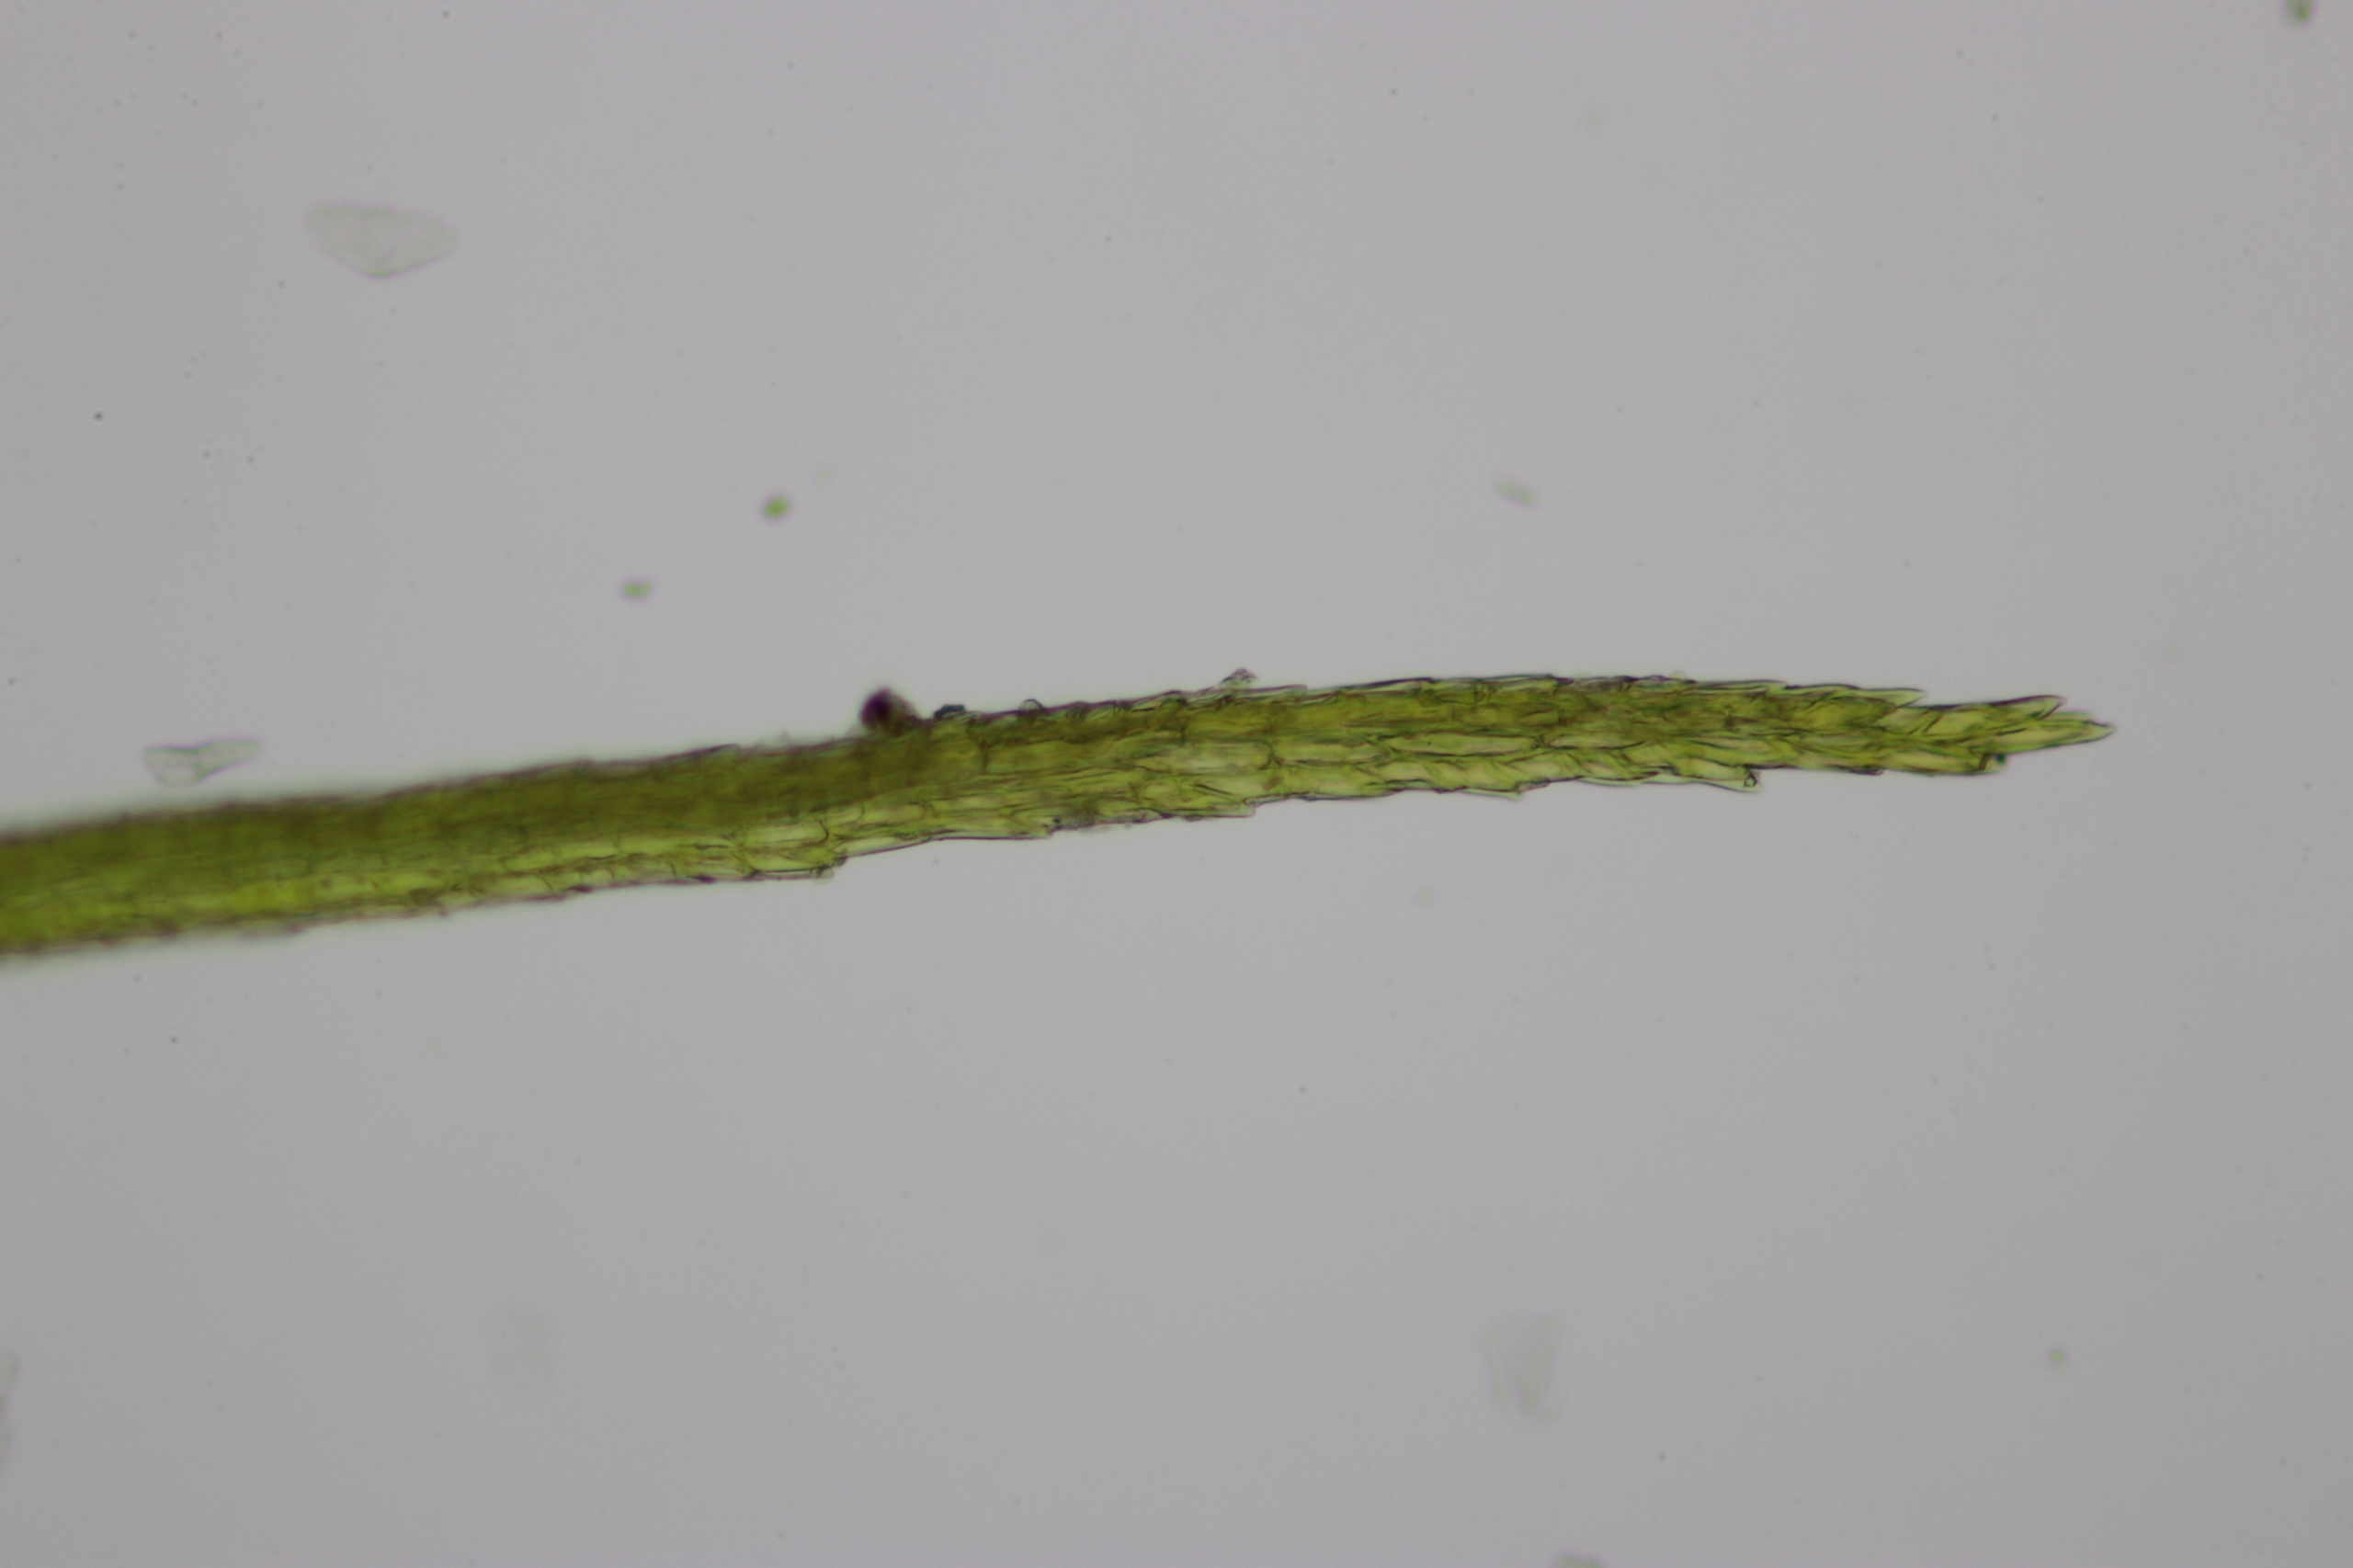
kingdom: Plantae
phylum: Bryophyta
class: Bryopsida
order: Dicranales
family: Leucobryaceae
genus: Campylopus
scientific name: Campylopus pyriformis
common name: Almindelig bredribbe
